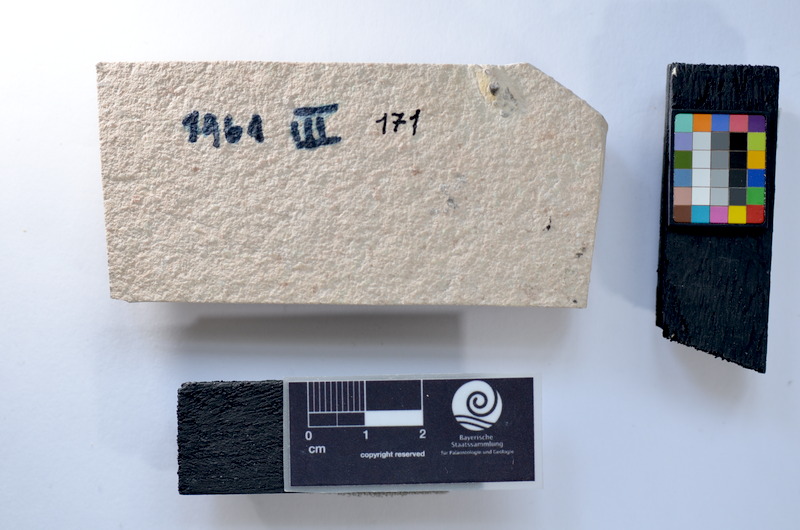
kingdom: Animalia
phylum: Chordata
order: Salmoniformes
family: Orthogonikleithridae
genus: Leptolepides
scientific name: Leptolepides
